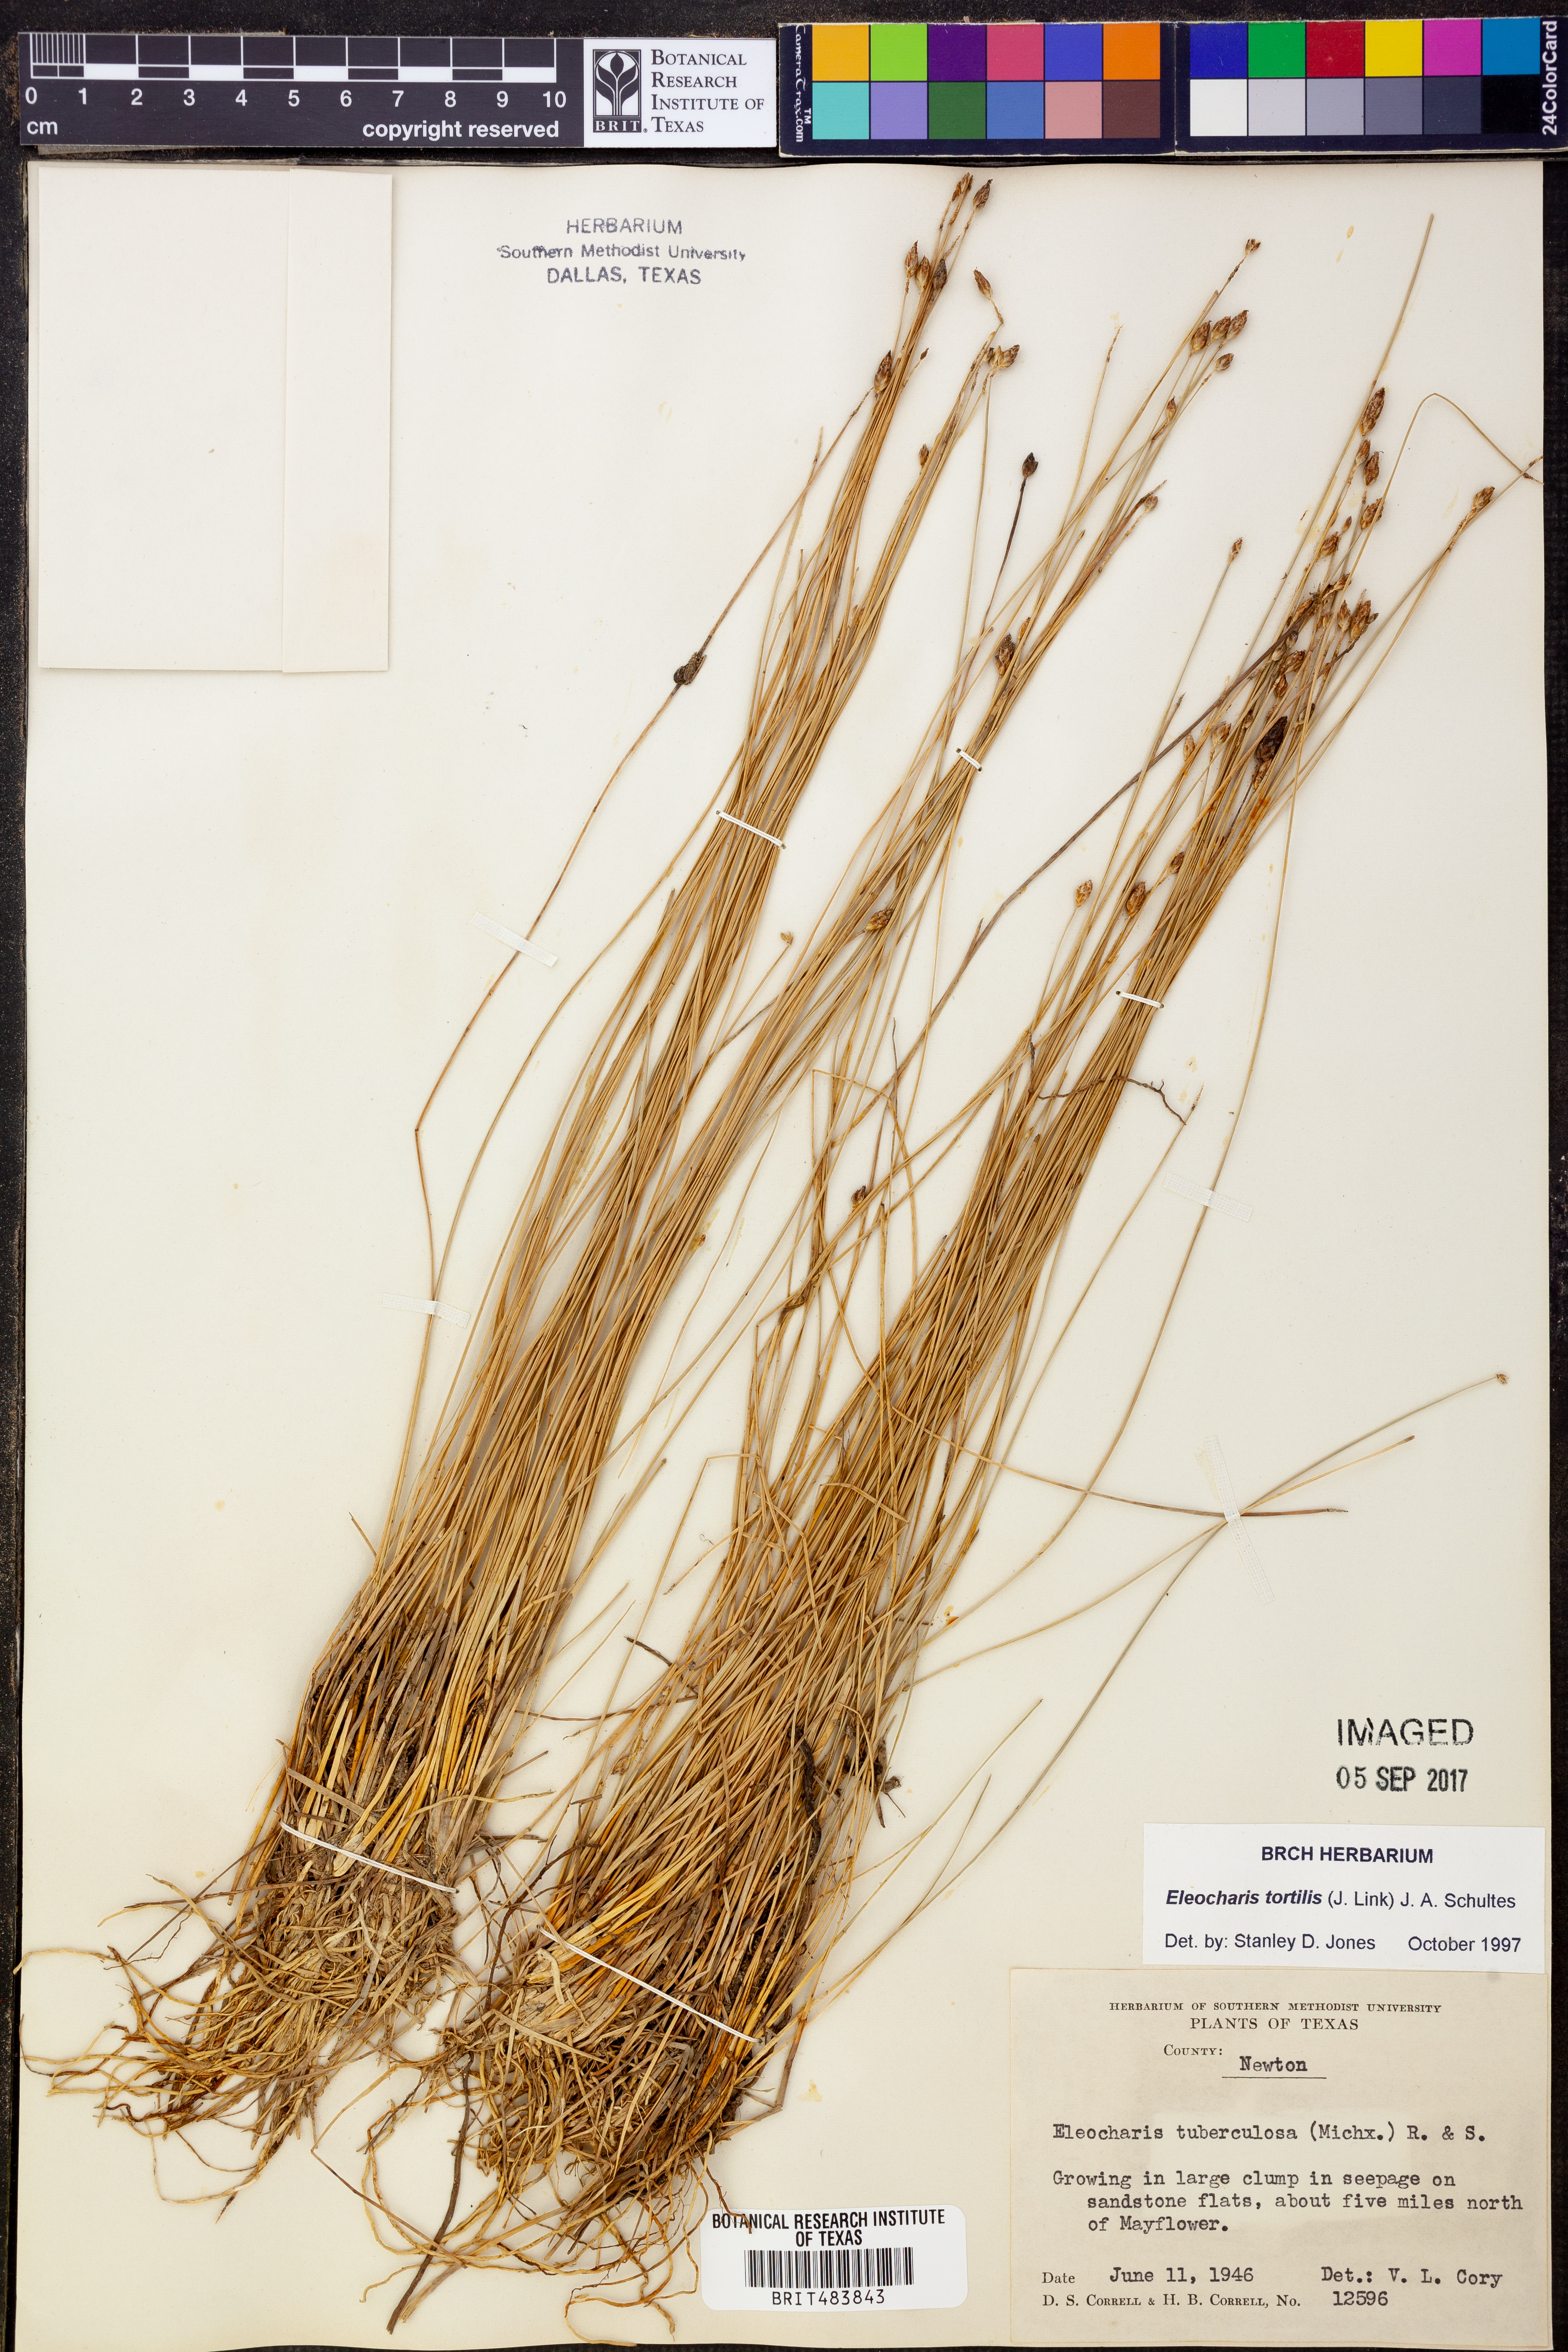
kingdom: Plantae
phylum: Tracheophyta
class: Liliopsida
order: Poales
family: Cyperaceae
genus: Eleocharis
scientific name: Eleocharis tortilis
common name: Twisted spike sedge
